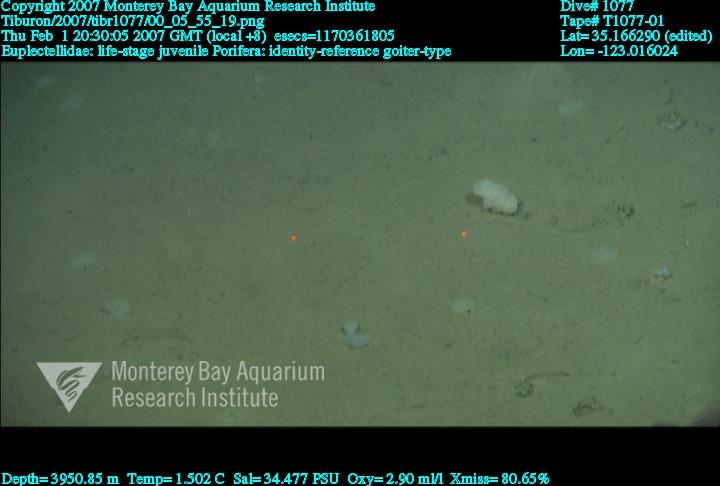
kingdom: Animalia
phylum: Porifera
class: Hexactinellida
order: Lyssacinosida
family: Euplectellidae
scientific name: Euplectellidae
